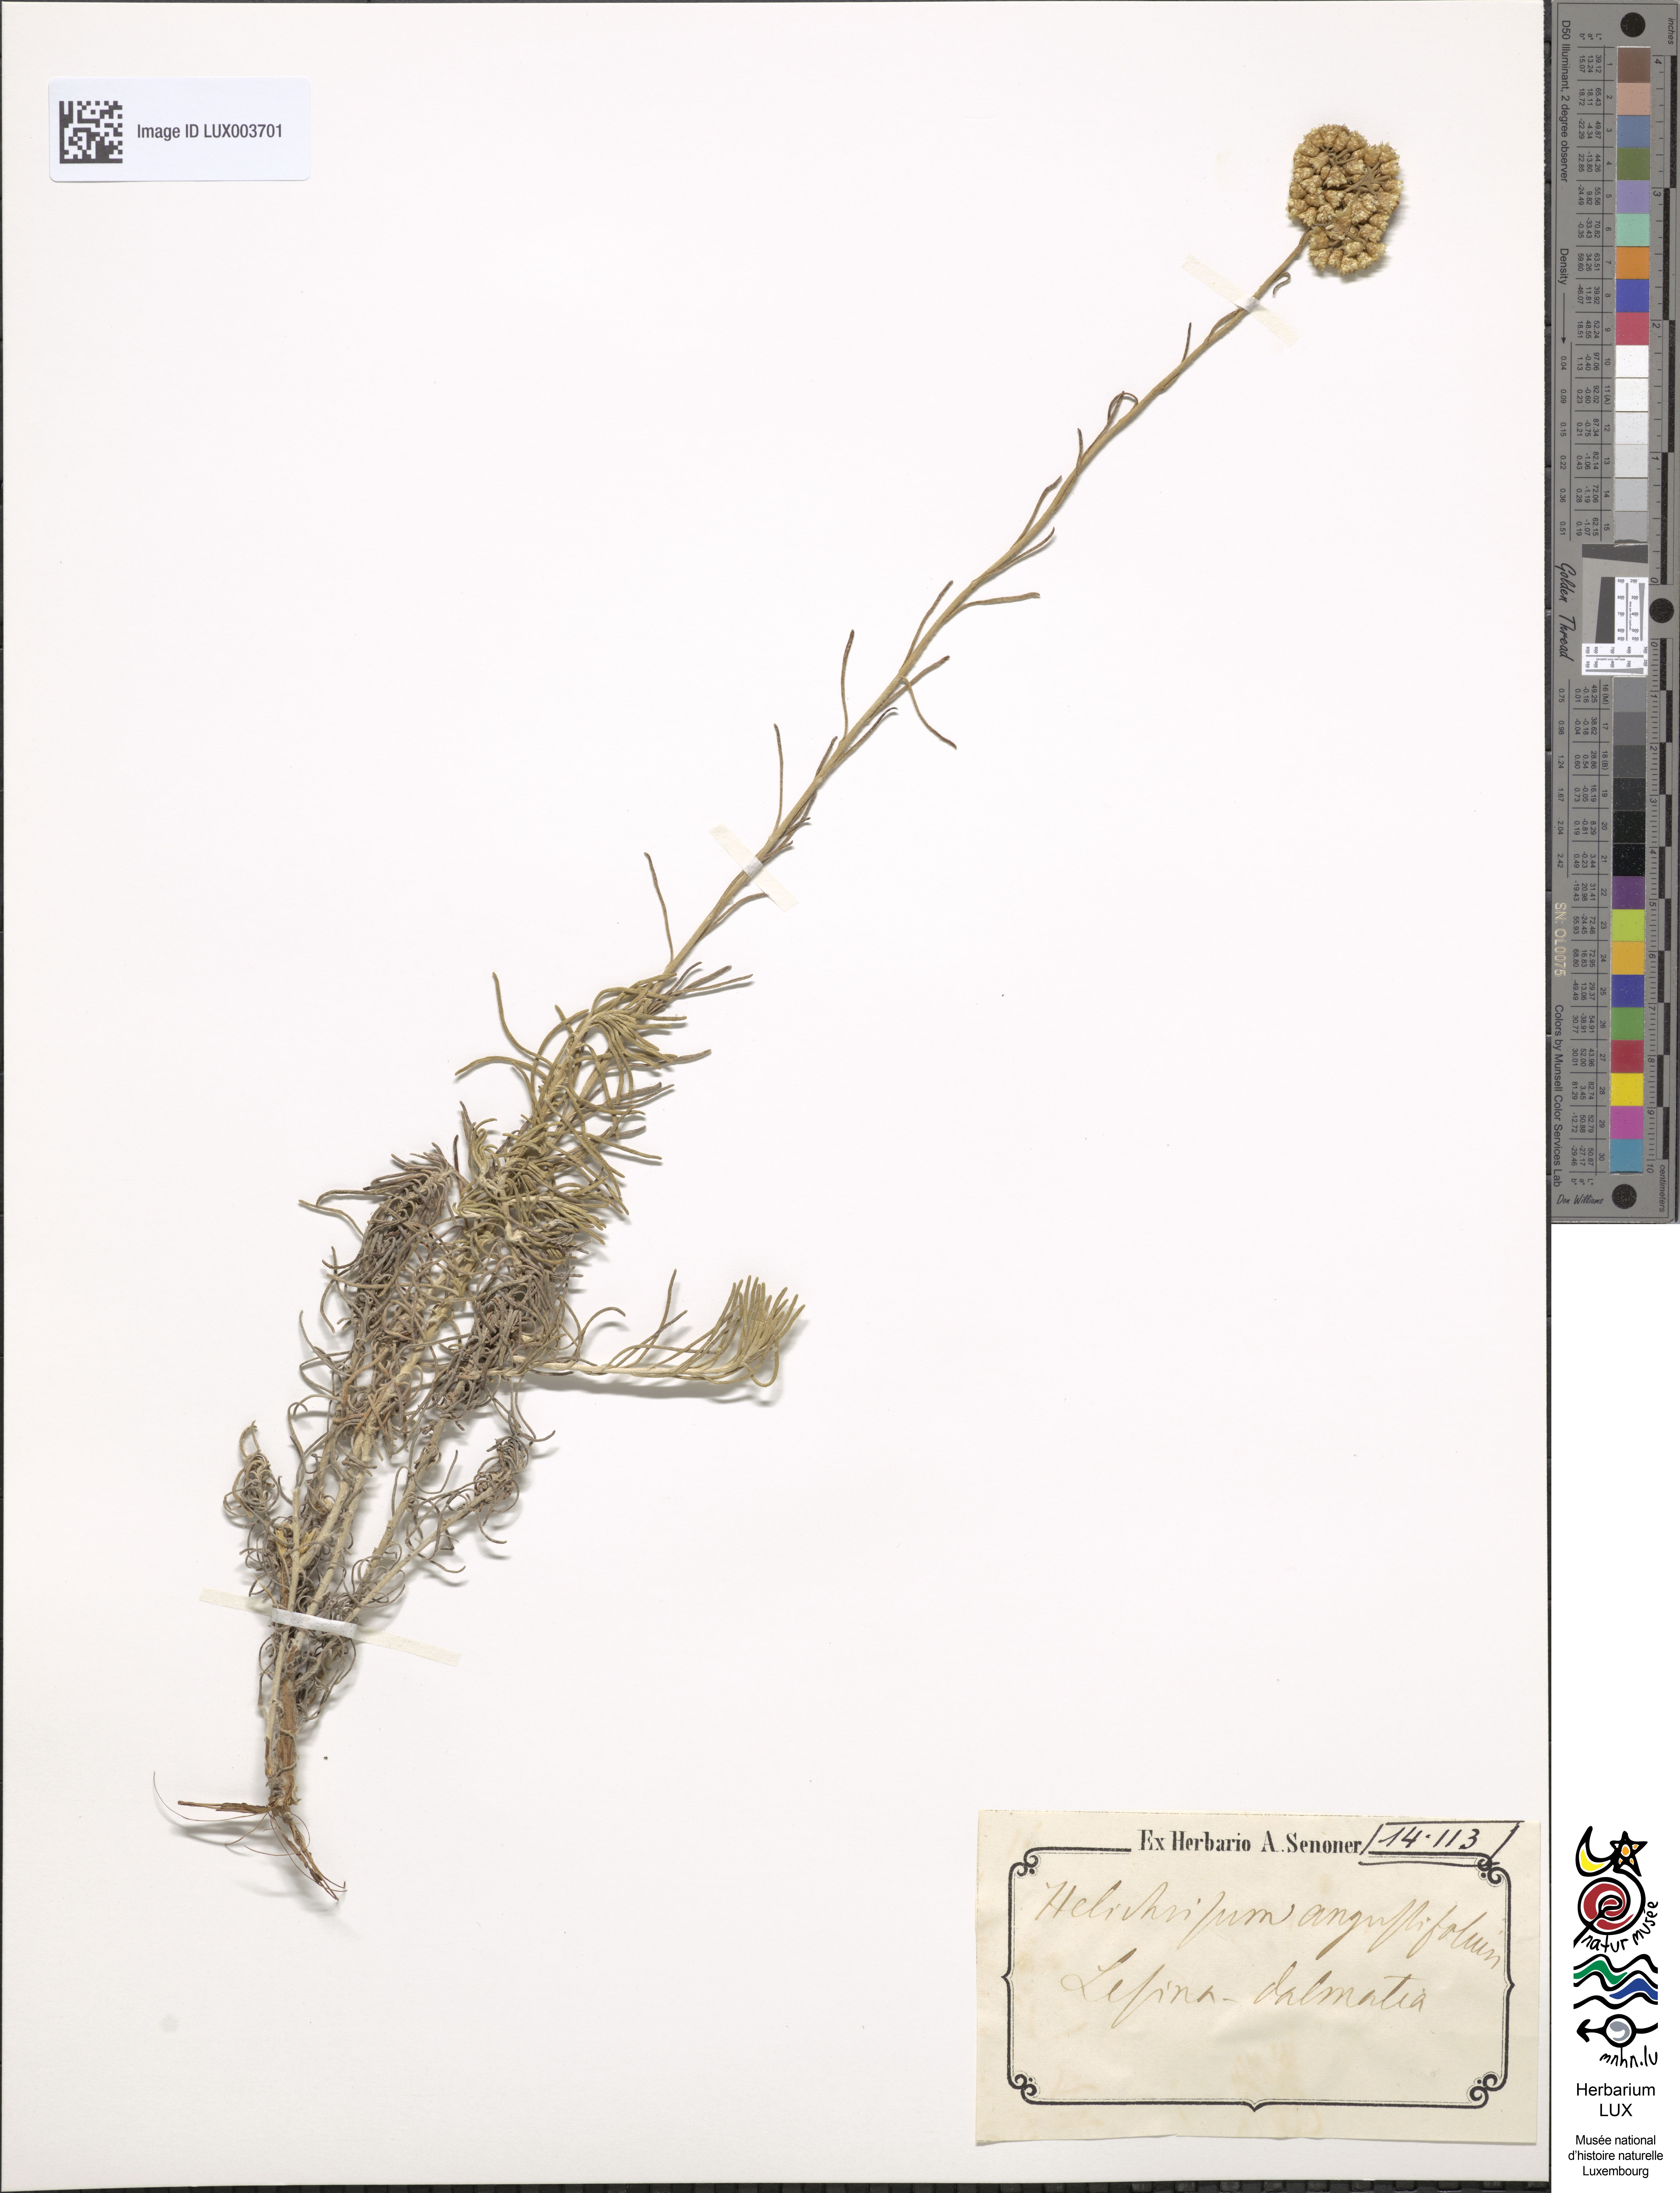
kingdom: Plantae
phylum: Tracheophyta
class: Magnoliopsida
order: Asterales
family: Asteraceae
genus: Helichrysum
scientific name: Helichrysum italicum
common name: Curryplant
